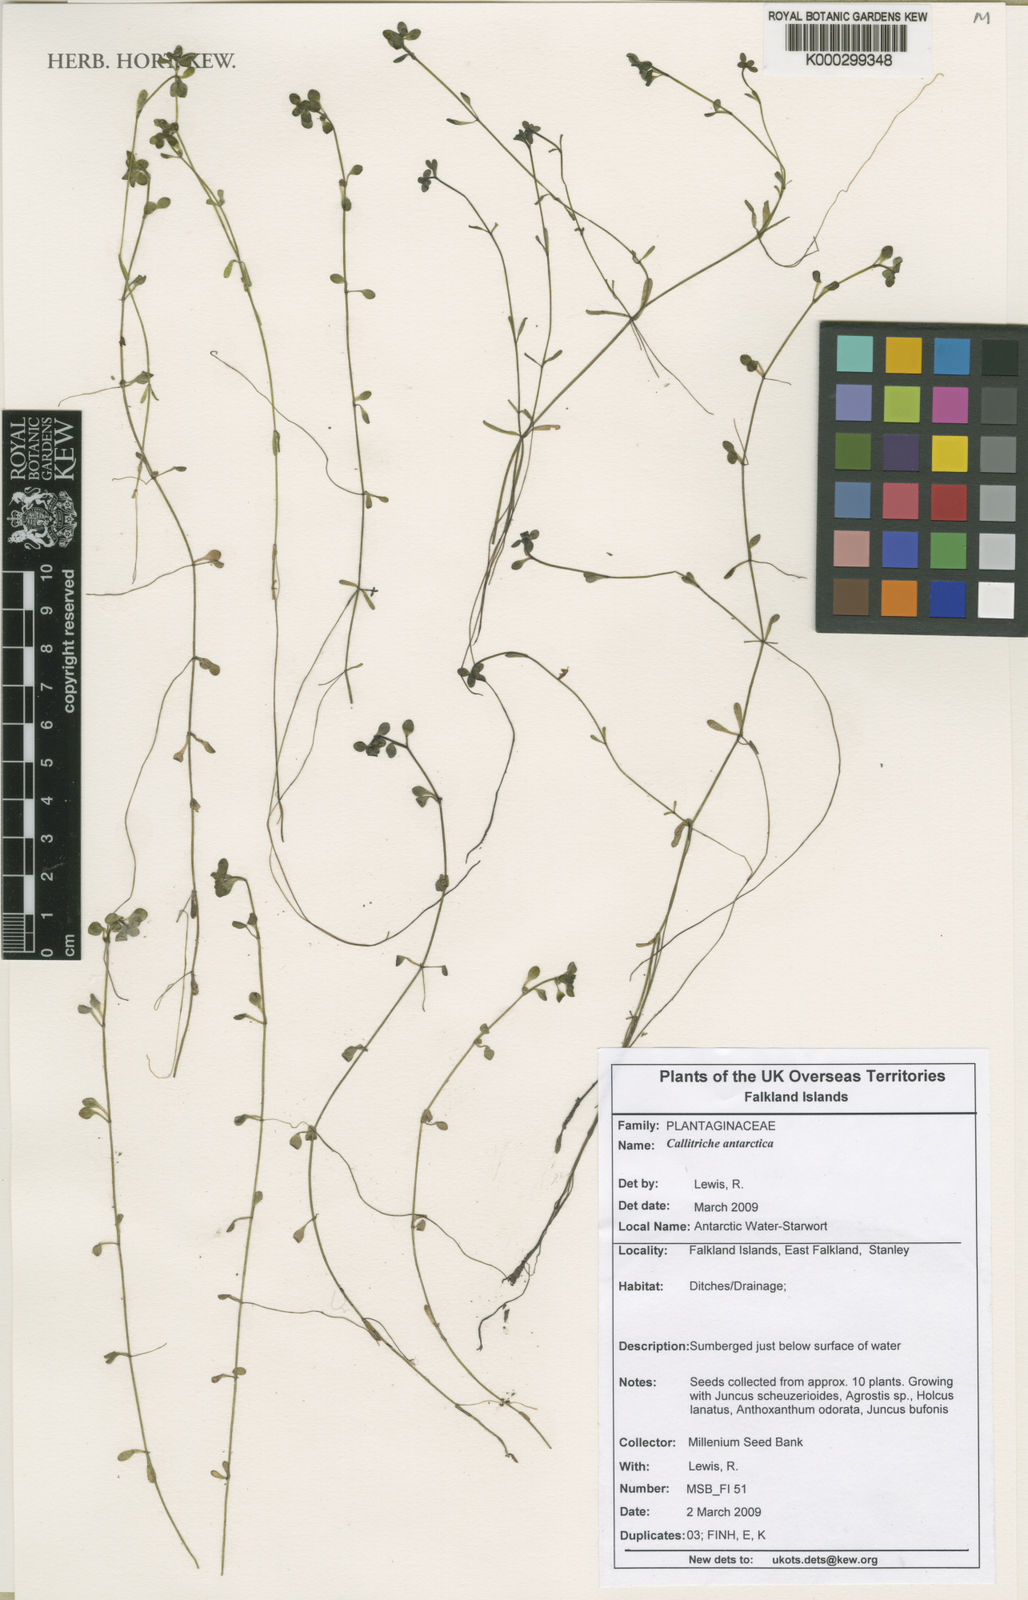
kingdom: Plantae
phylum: Tracheophyta
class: Magnoliopsida
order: Lamiales
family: Plantaginaceae
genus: Callitriche
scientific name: Callitriche antarctica
